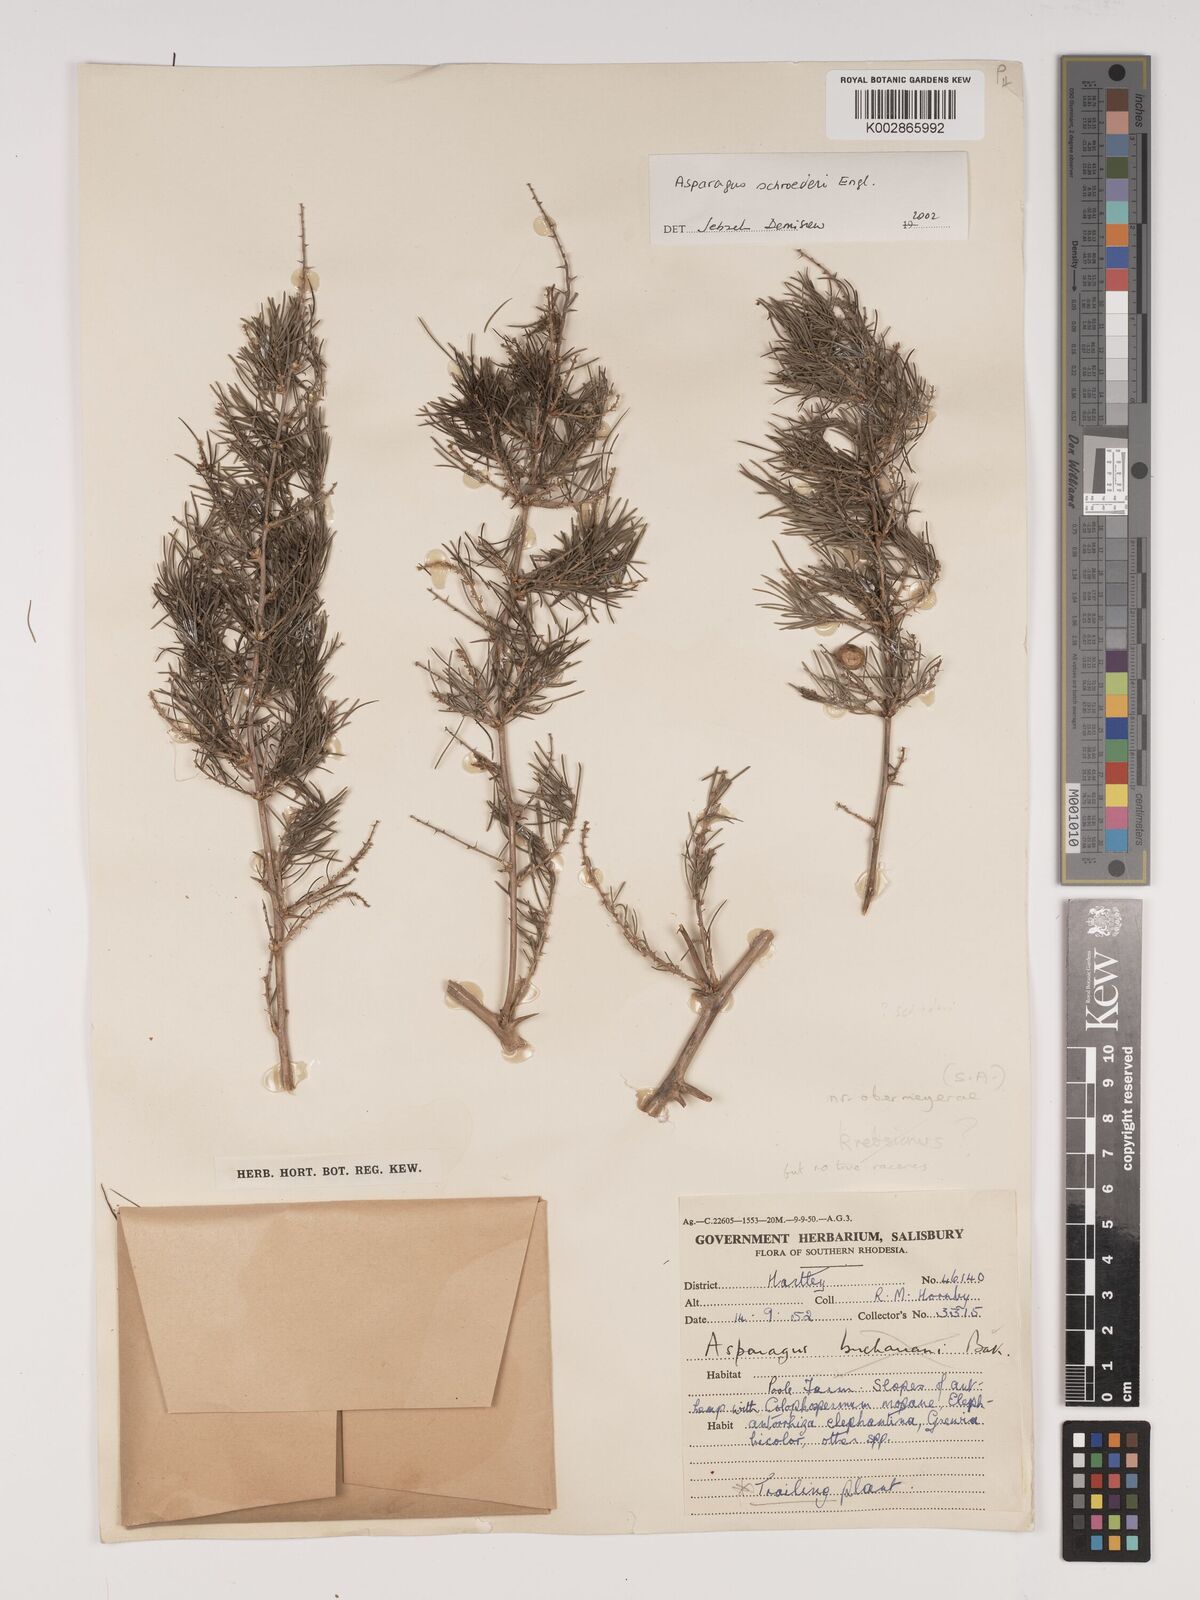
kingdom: Plantae
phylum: Tracheophyta
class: Liliopsida
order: Asparagales
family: Asparagaceae
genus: Asparagus
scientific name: Asparagus schroederi
